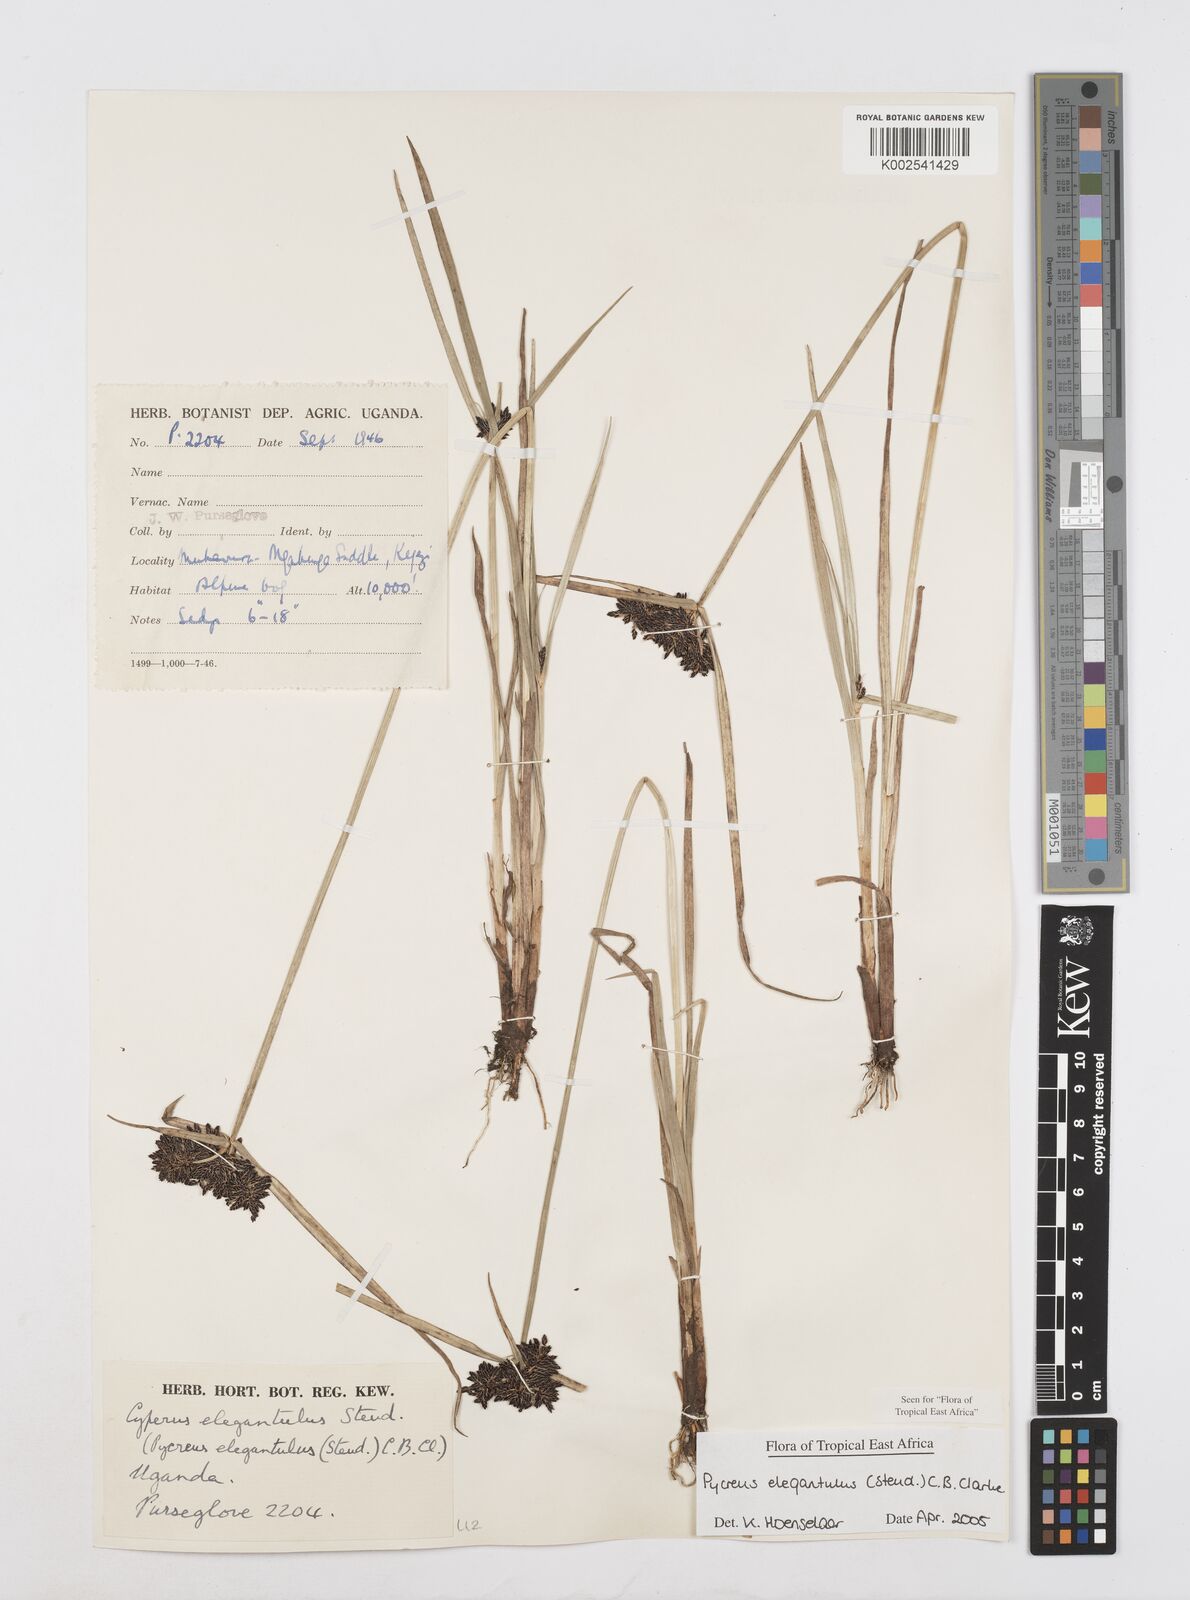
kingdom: Plantae
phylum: Tracheophyta
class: Liliopsida
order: Poales
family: Cyperaceae
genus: Cyperus
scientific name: Cyperus elegantulus
